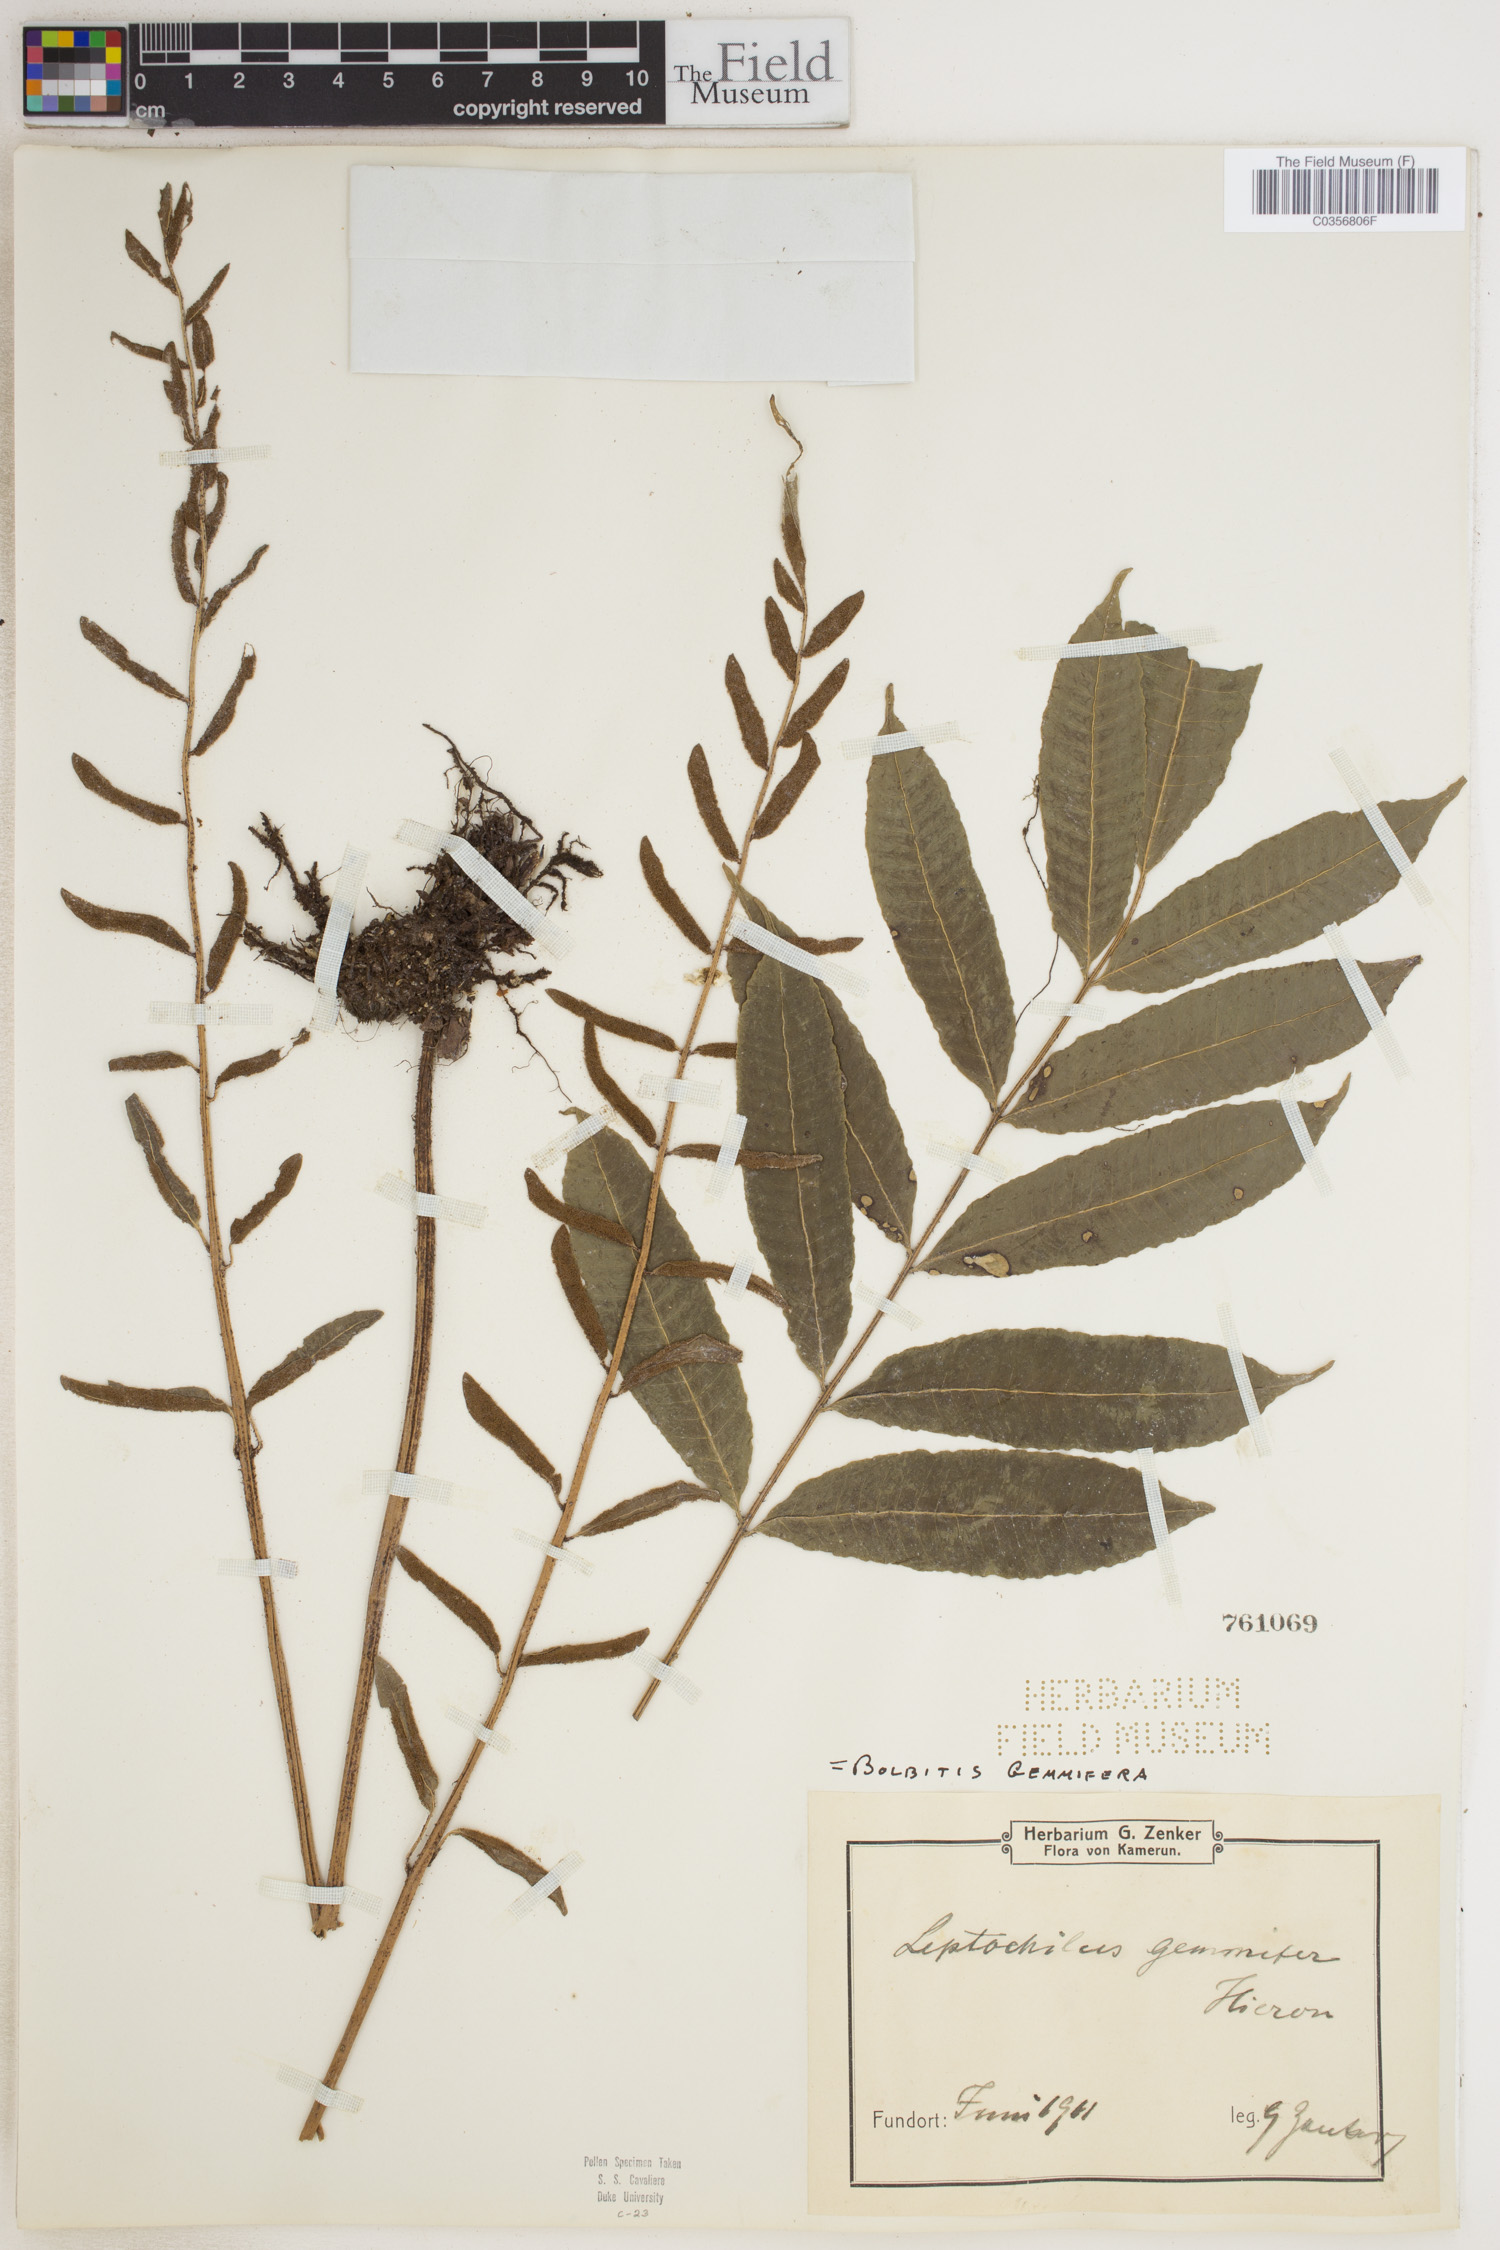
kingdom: Plantae
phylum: Tracheophyta
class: Polypodiopsida
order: Polypodiales
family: Dryopteridaceae
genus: Bolbitis
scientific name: Bolbitis gemmifer
